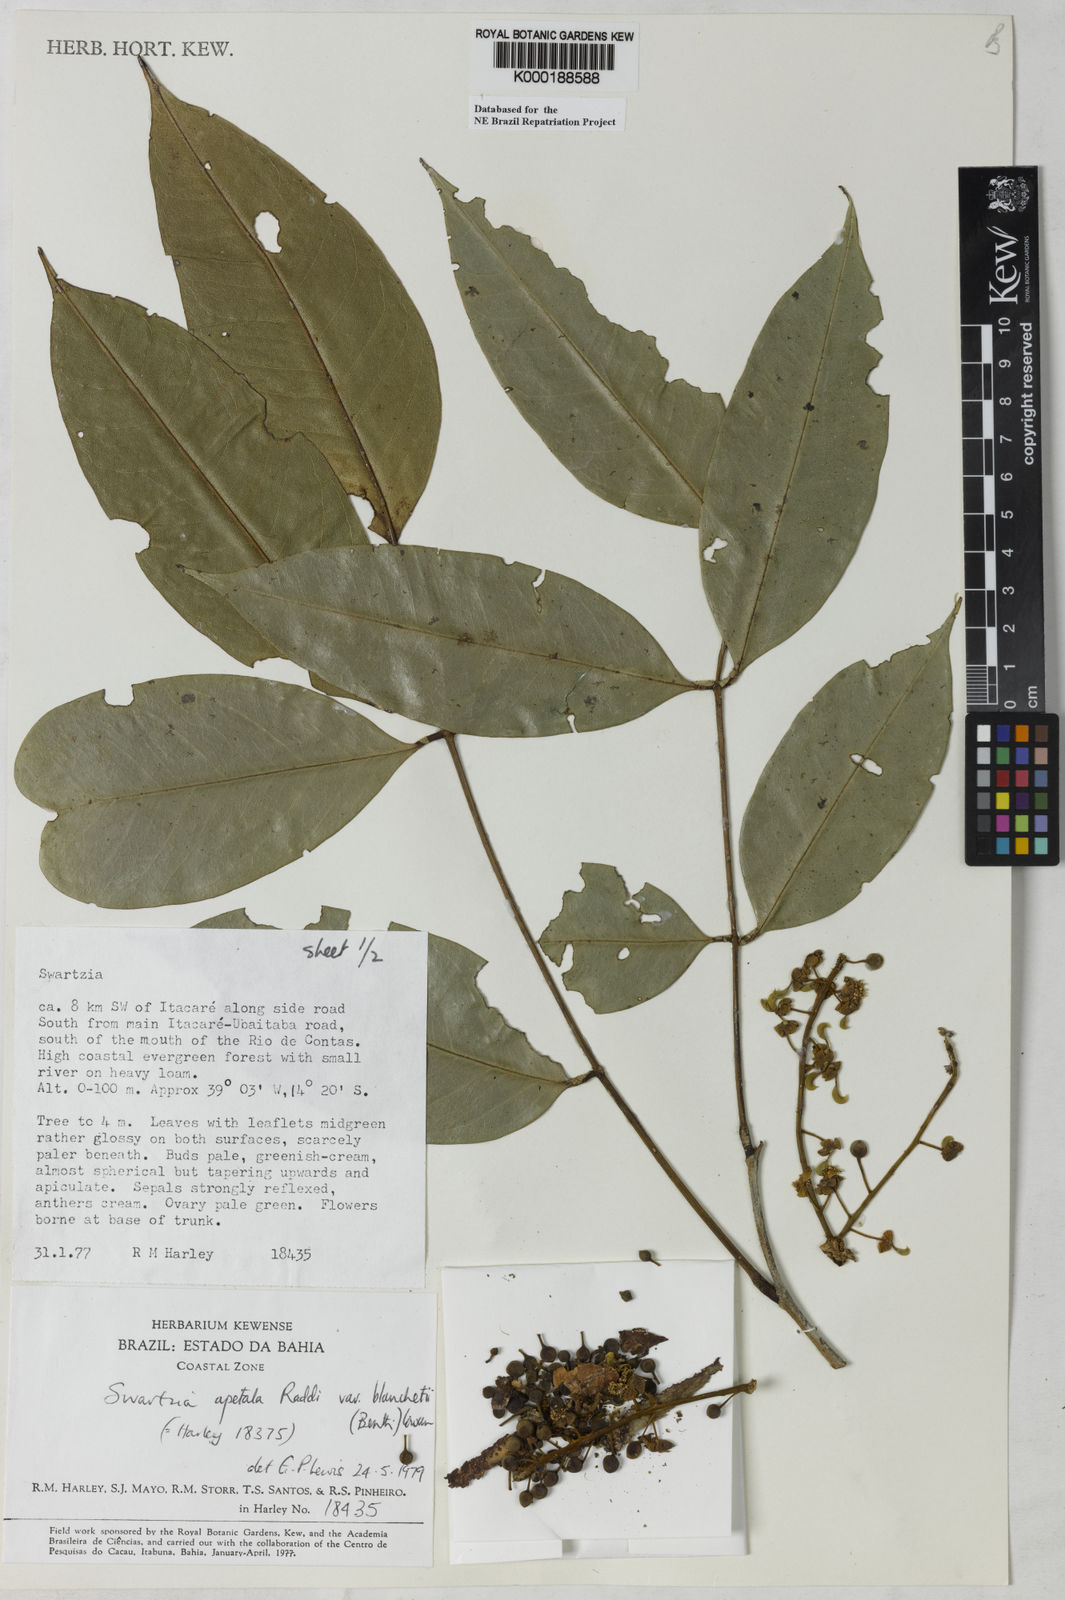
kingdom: Plantae
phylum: Tracheophyta
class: Magnoliopsida
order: Fabales
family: Fabaceae
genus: Swartzia
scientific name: Swartzia apetala
